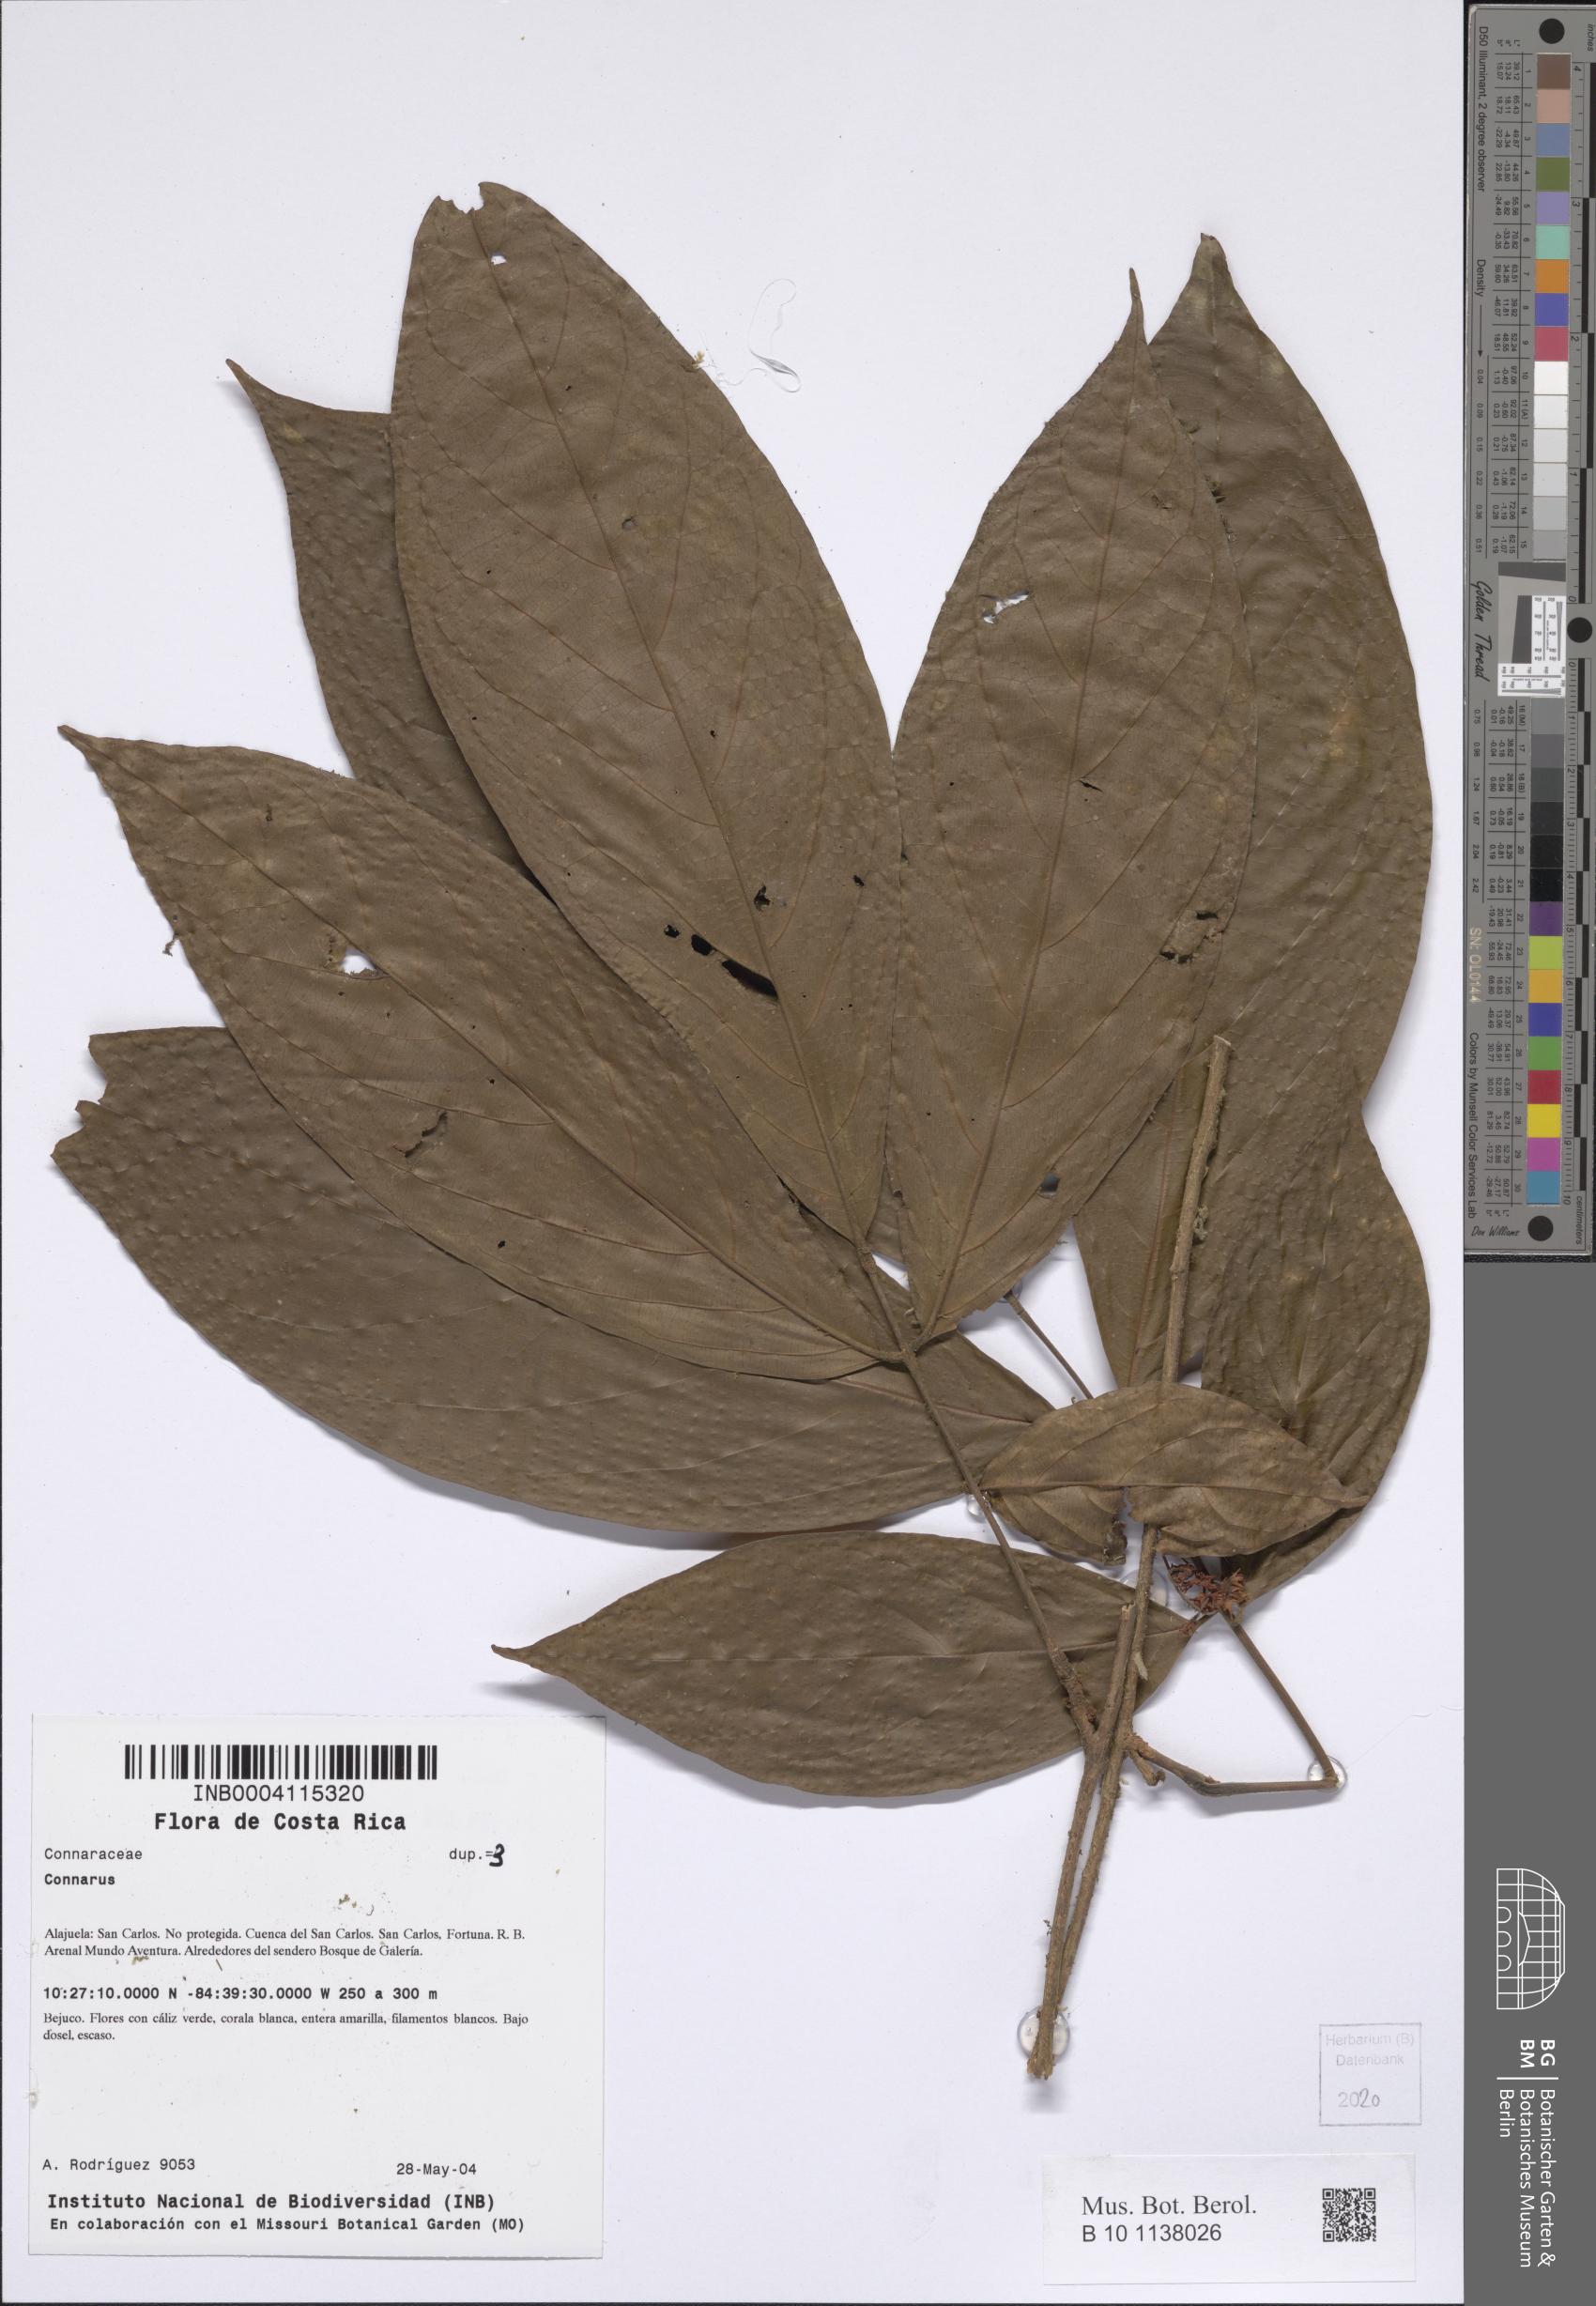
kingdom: Plantae
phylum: Tracheophyta
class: Magnoliopsida
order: Oxalidales
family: Connaraceae
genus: Connarus
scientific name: Connarus
